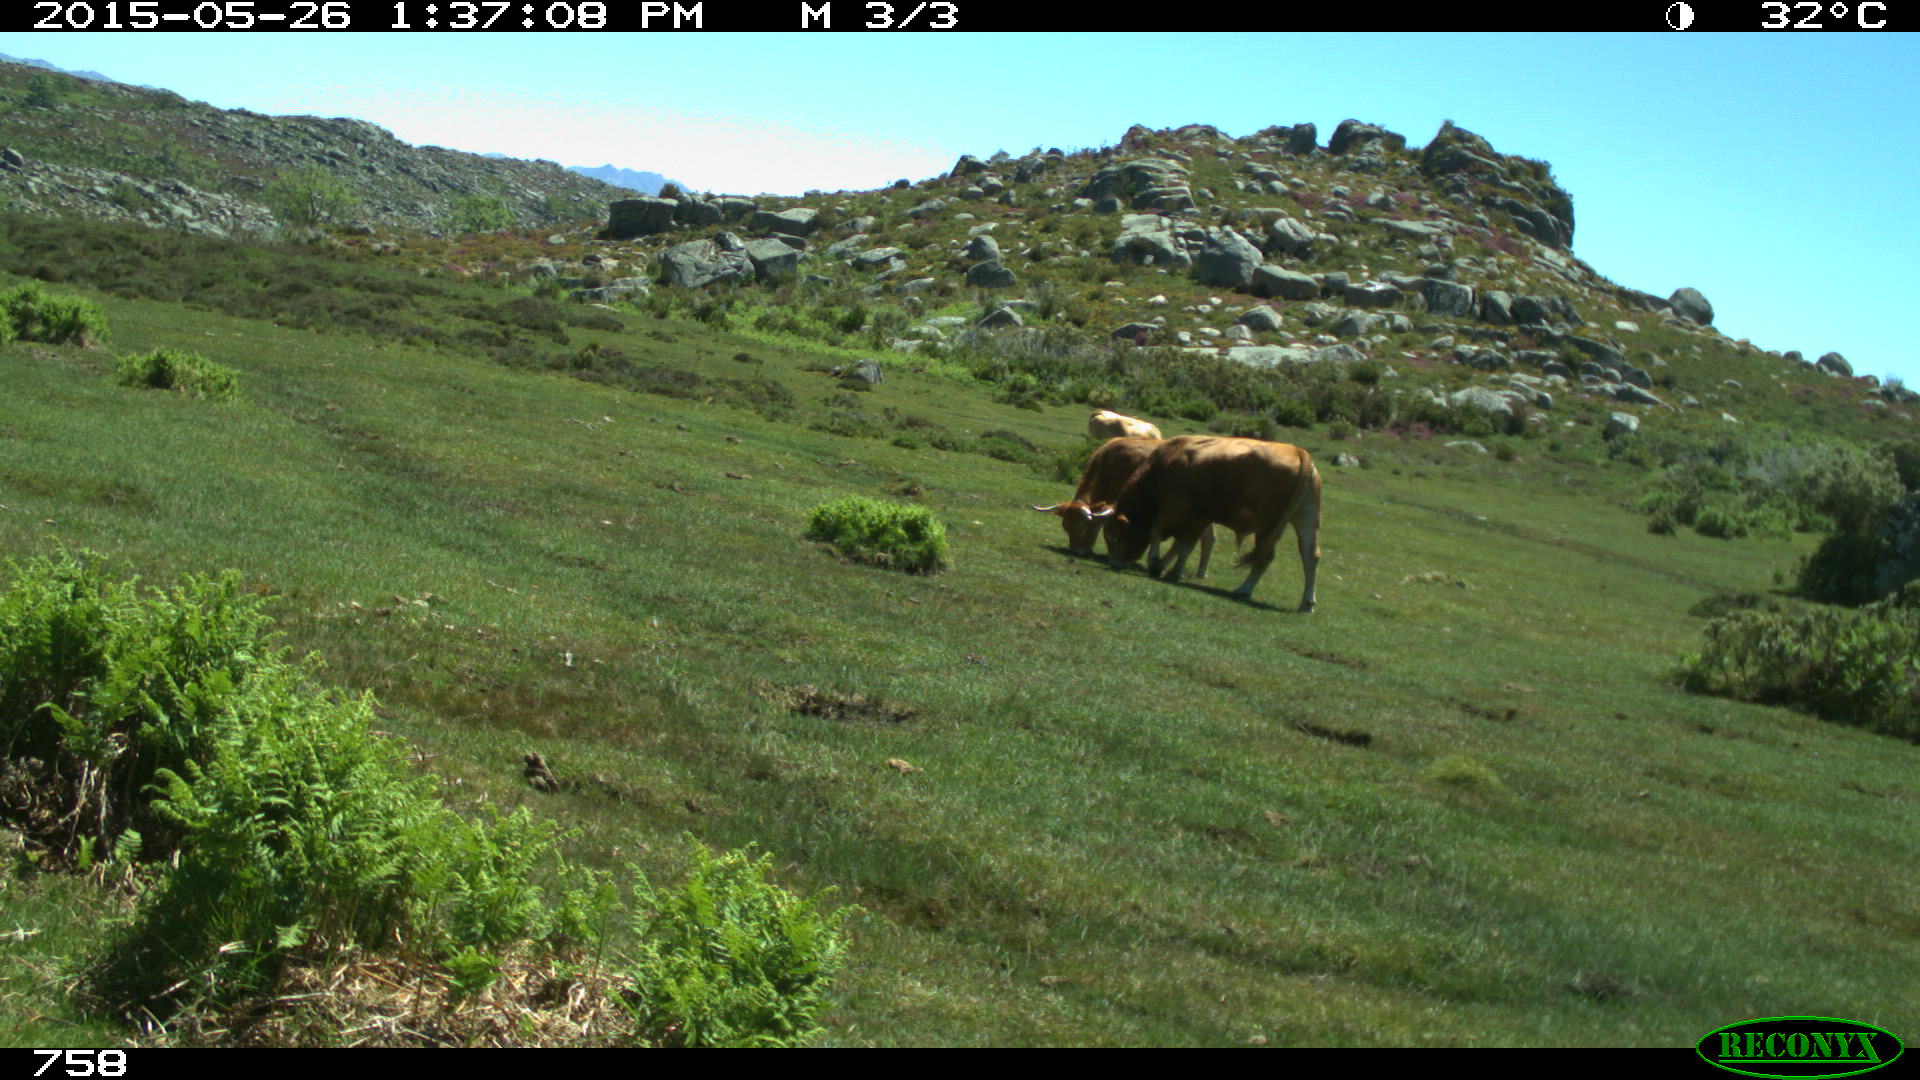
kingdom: Animalia
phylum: Chordata
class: Mammalia
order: Artiodactyla
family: Bovidae
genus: Bos
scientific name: Bos taurus
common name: Domesticated cattle
